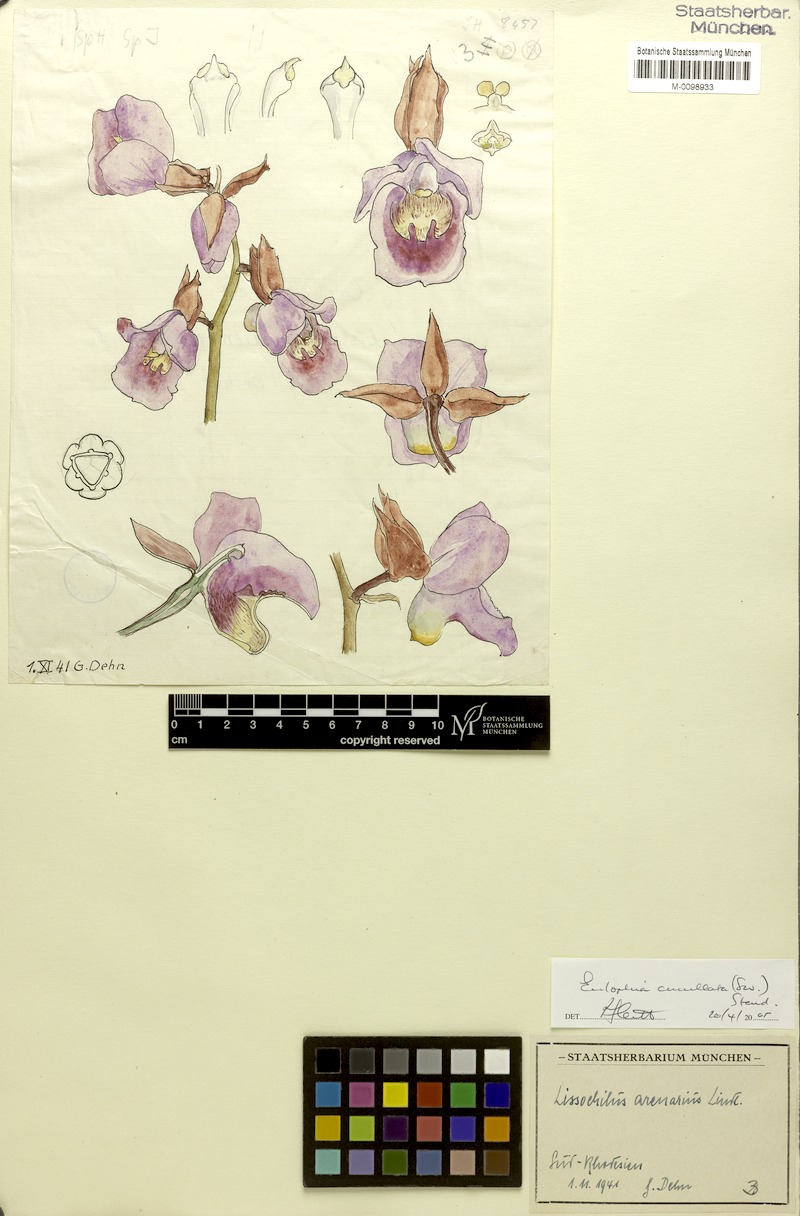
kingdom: Plantae
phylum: Tracheophyta
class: Liliopsida
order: Asparagales
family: Orchidaceae
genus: Eulophia
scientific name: Eulophia cucullata
